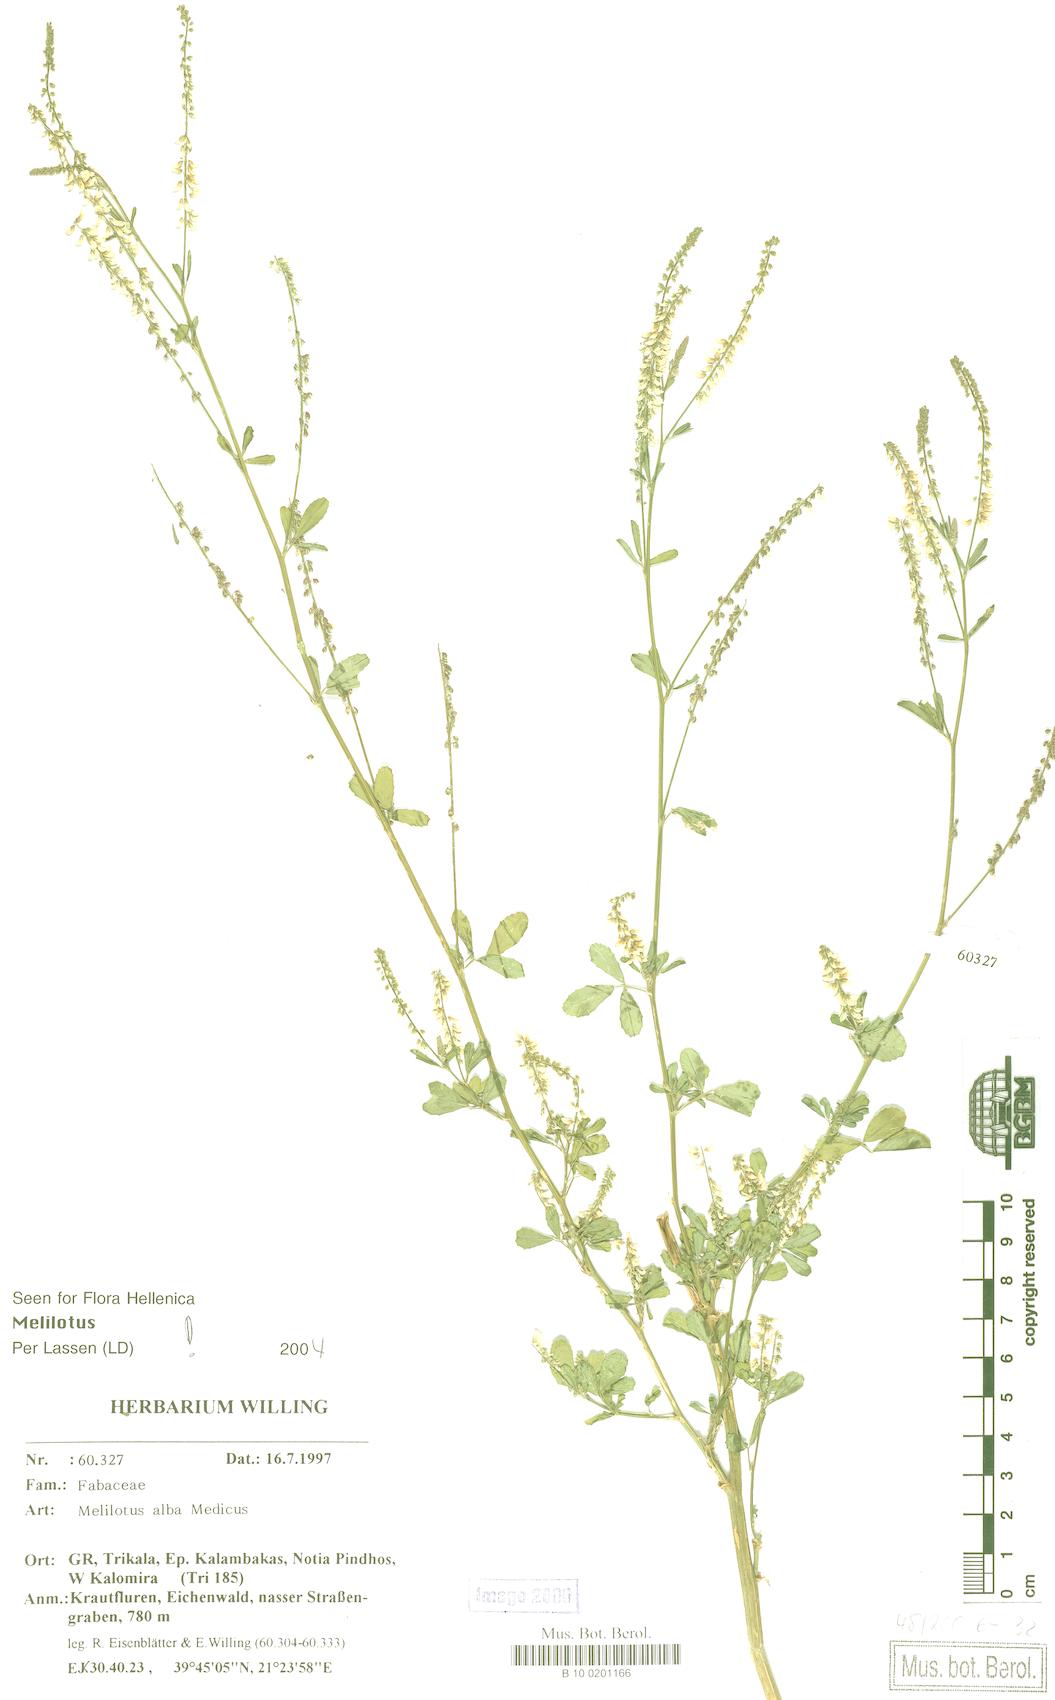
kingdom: Plantae
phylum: Tracheophyta
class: Magnoliopsida
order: Fabales
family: Fabaceae
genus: Melilotus
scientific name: Melilotus albus
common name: White melilot
